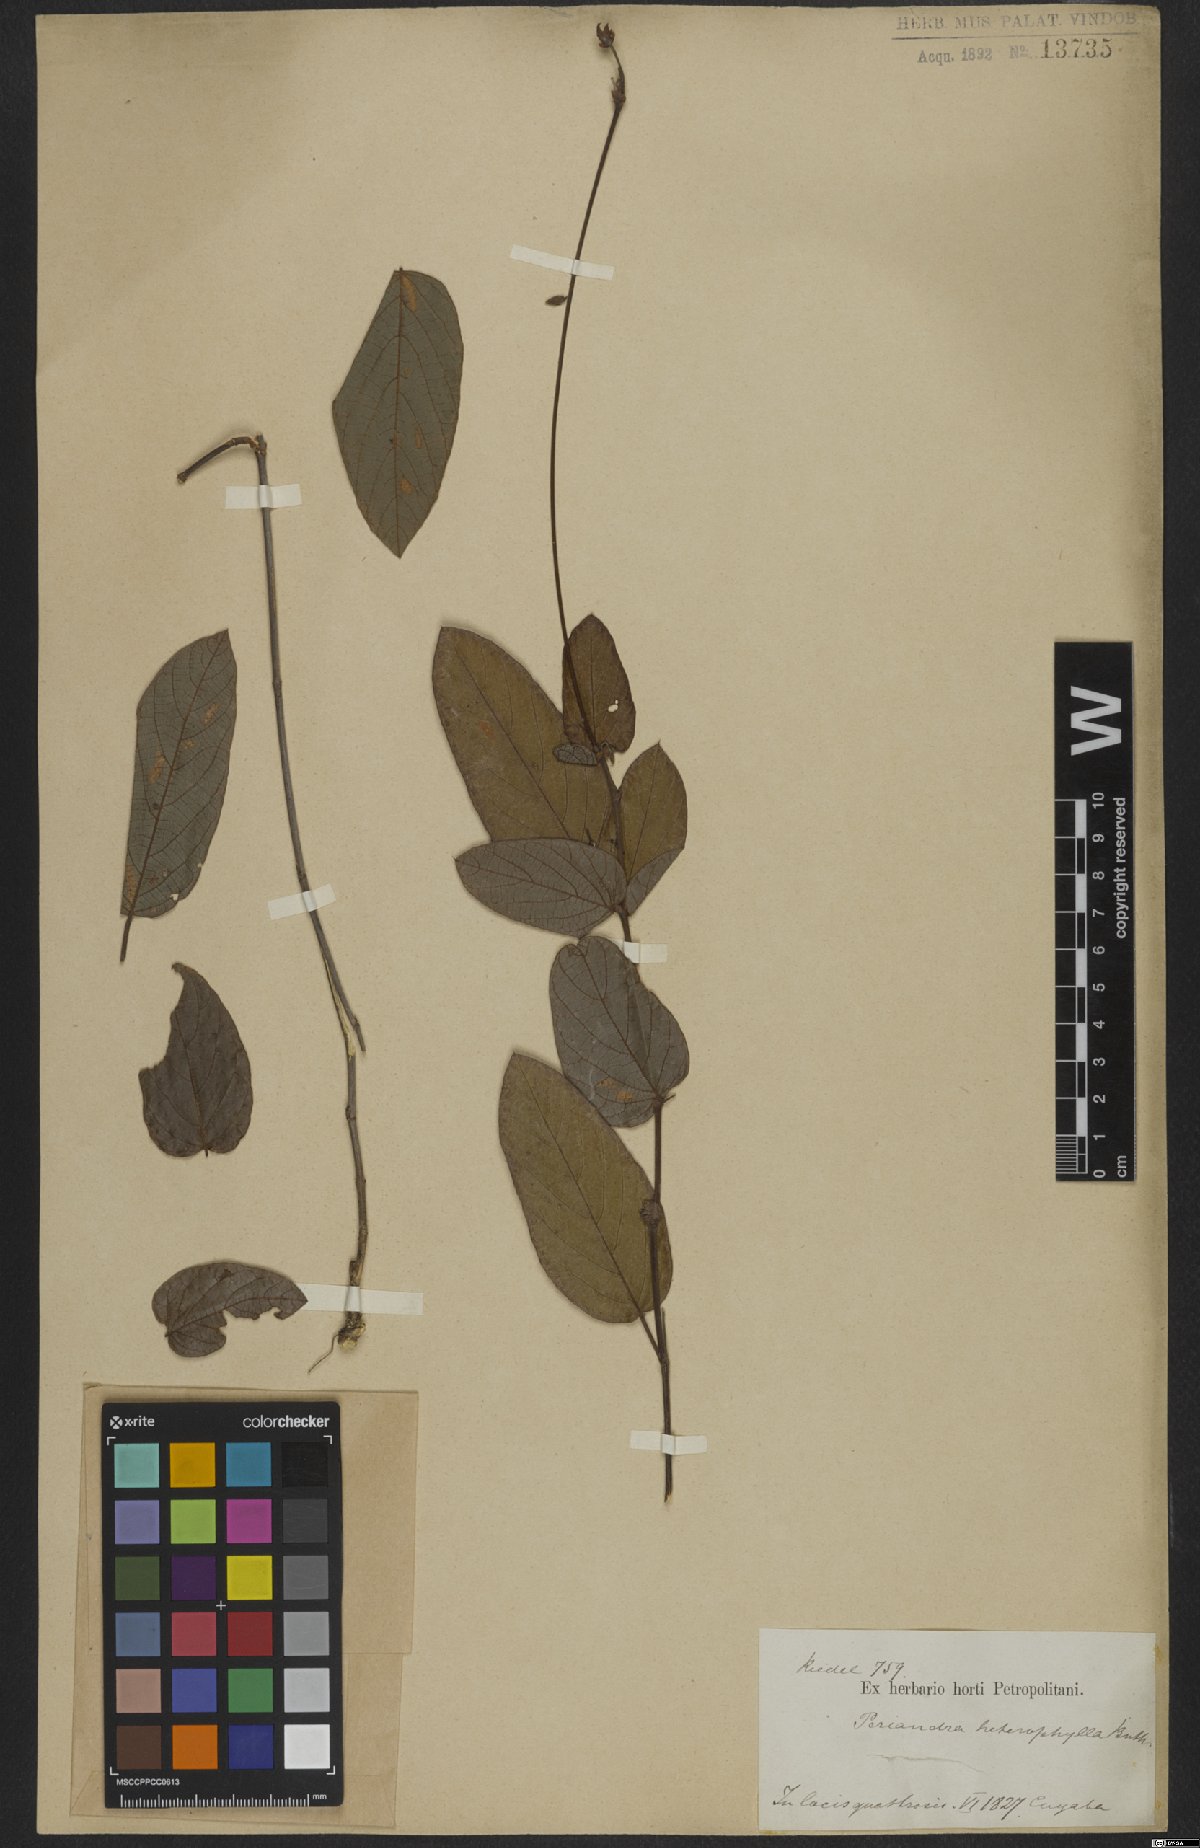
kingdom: Plantae
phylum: Tracheophyta
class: Magnoliopsida
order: Fabales
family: Fabaceae
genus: Periandra
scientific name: Periandra heterophylla
